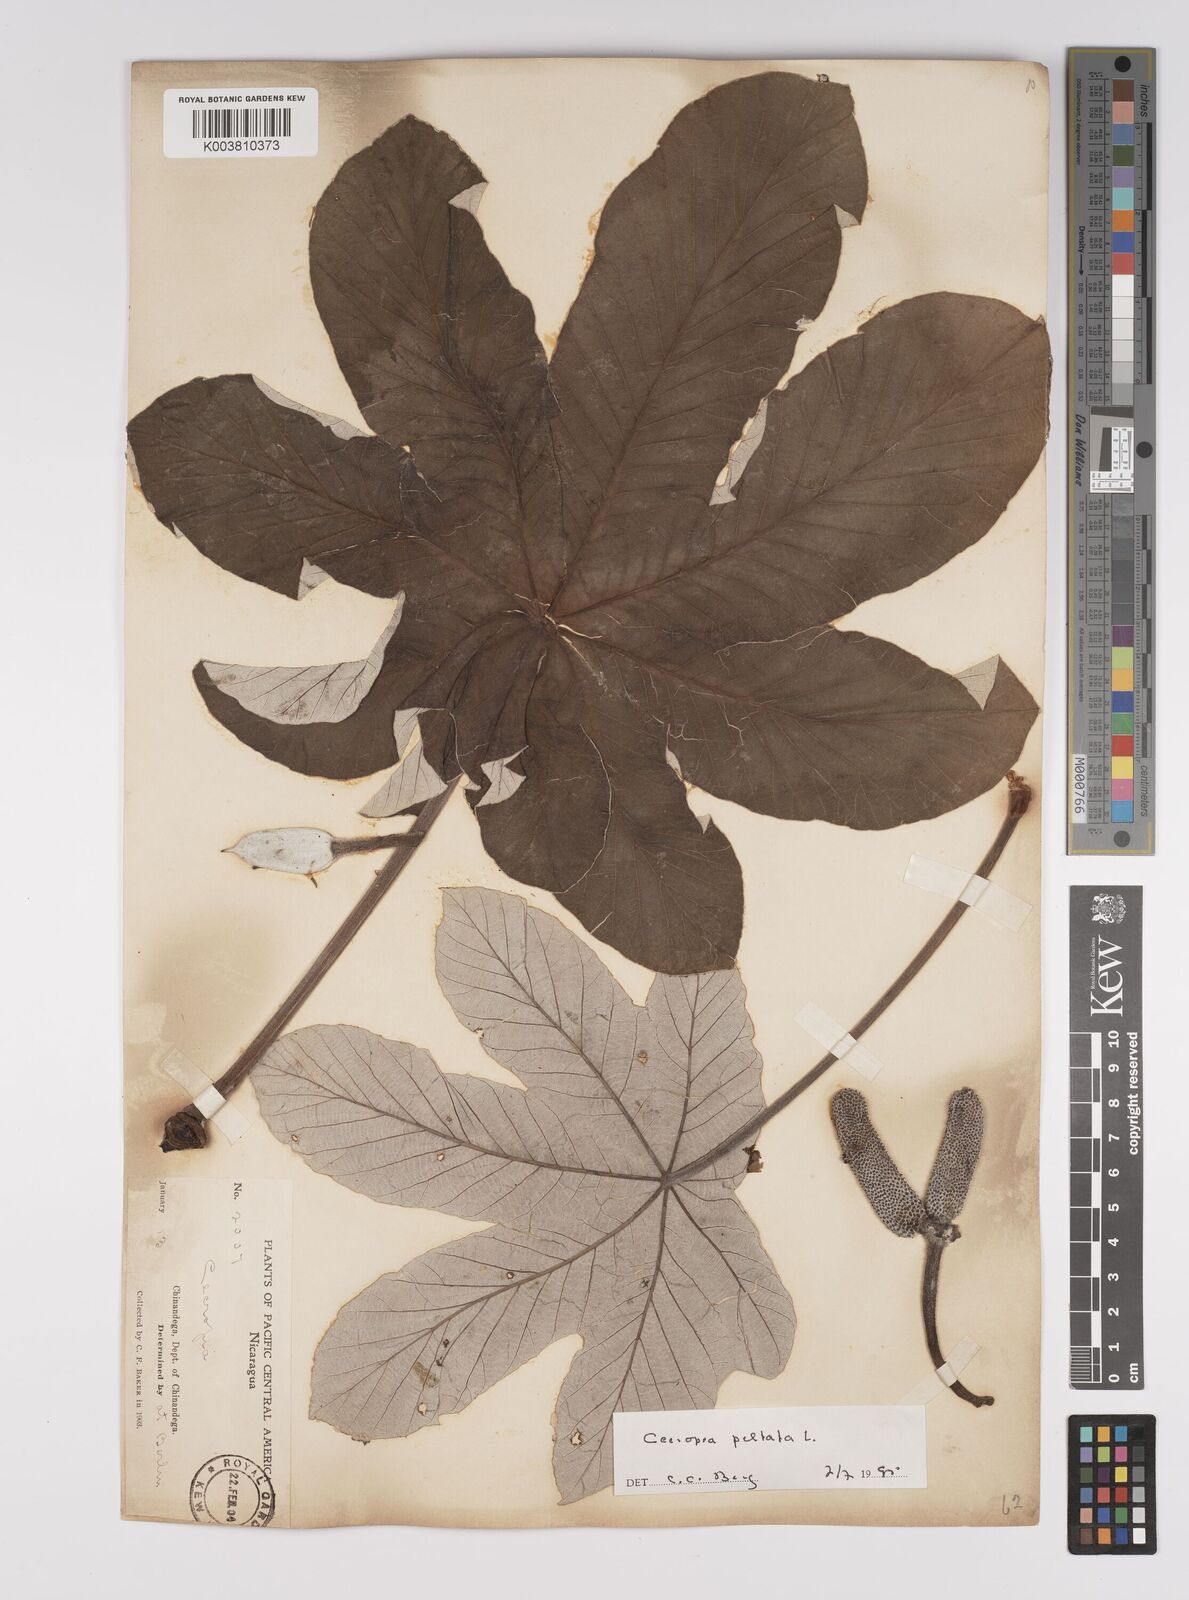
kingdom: Plantae
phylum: Tracheophyta
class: Magnoliopsida
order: Rosales
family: Urticaceae
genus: Cecropia
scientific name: Cecropia peltata
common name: Trumpet-tree
